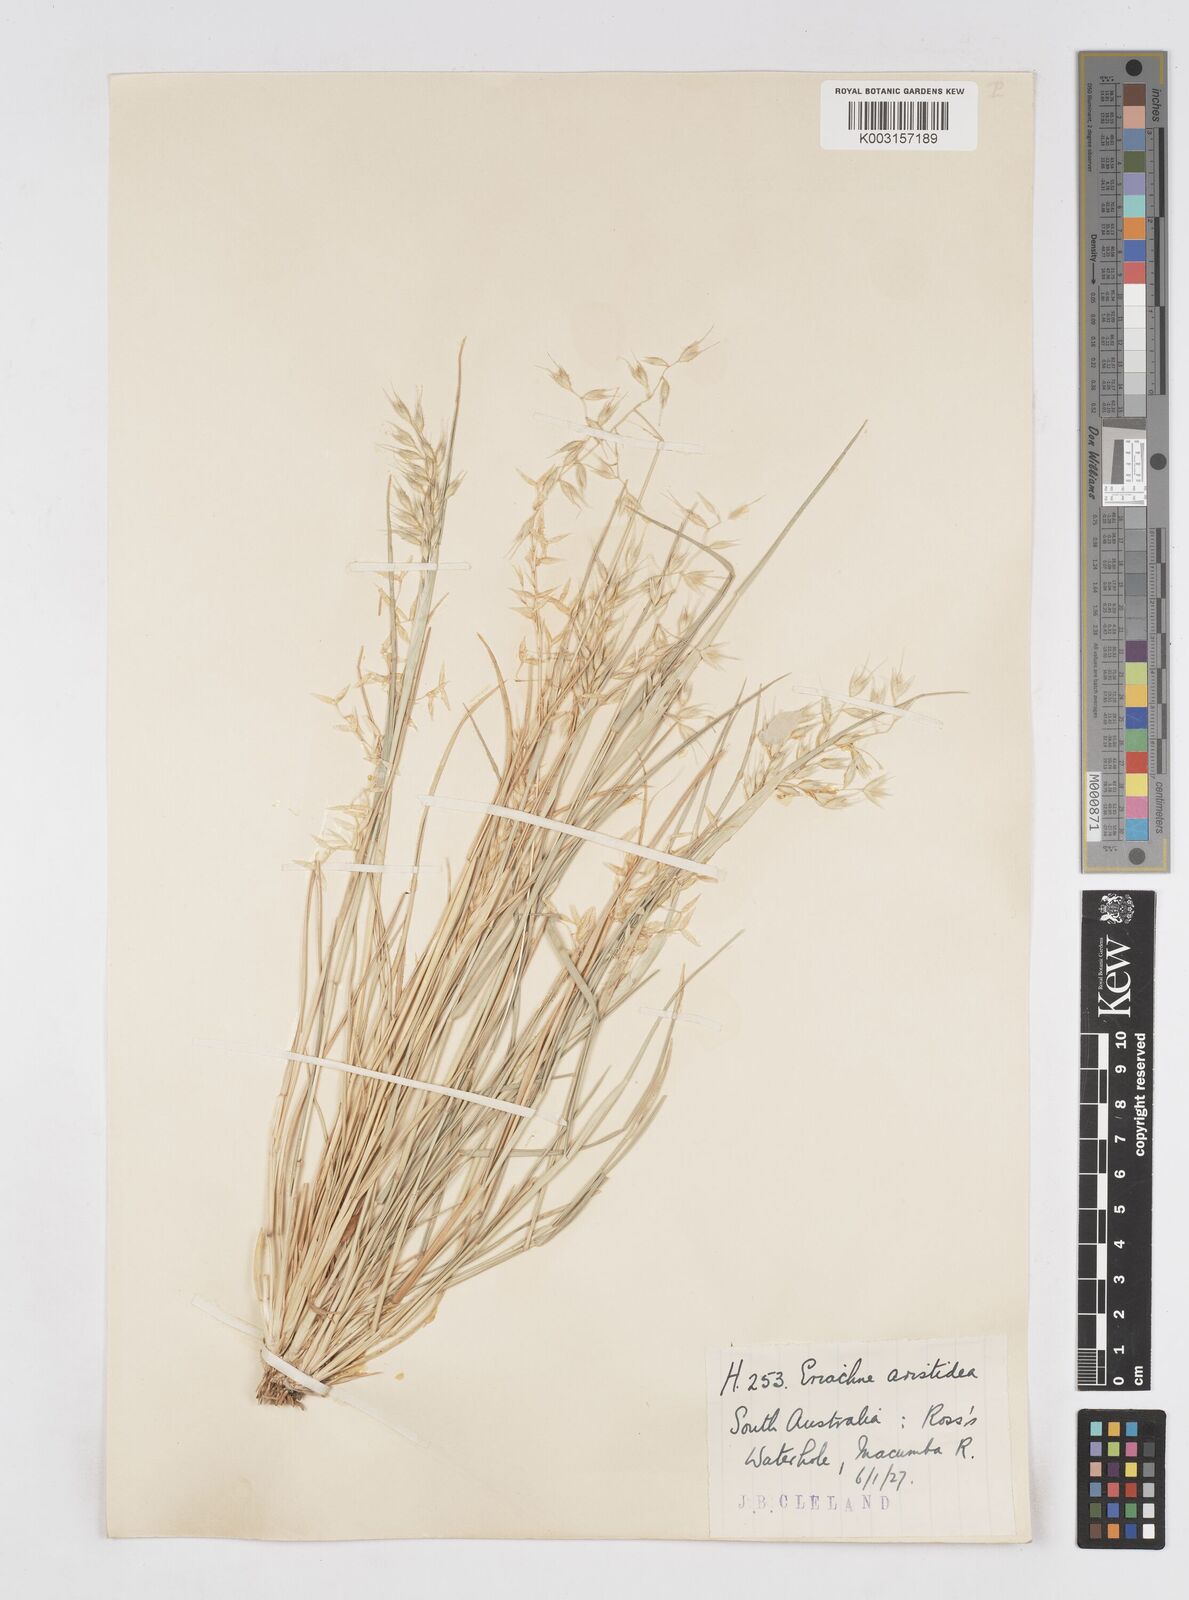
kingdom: Plantae
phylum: Tracheophyta
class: Liliopsida
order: Poales
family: Poaceae
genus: Eriachne
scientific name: Eriachne aristidea
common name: Three-awn wanderrie grass
